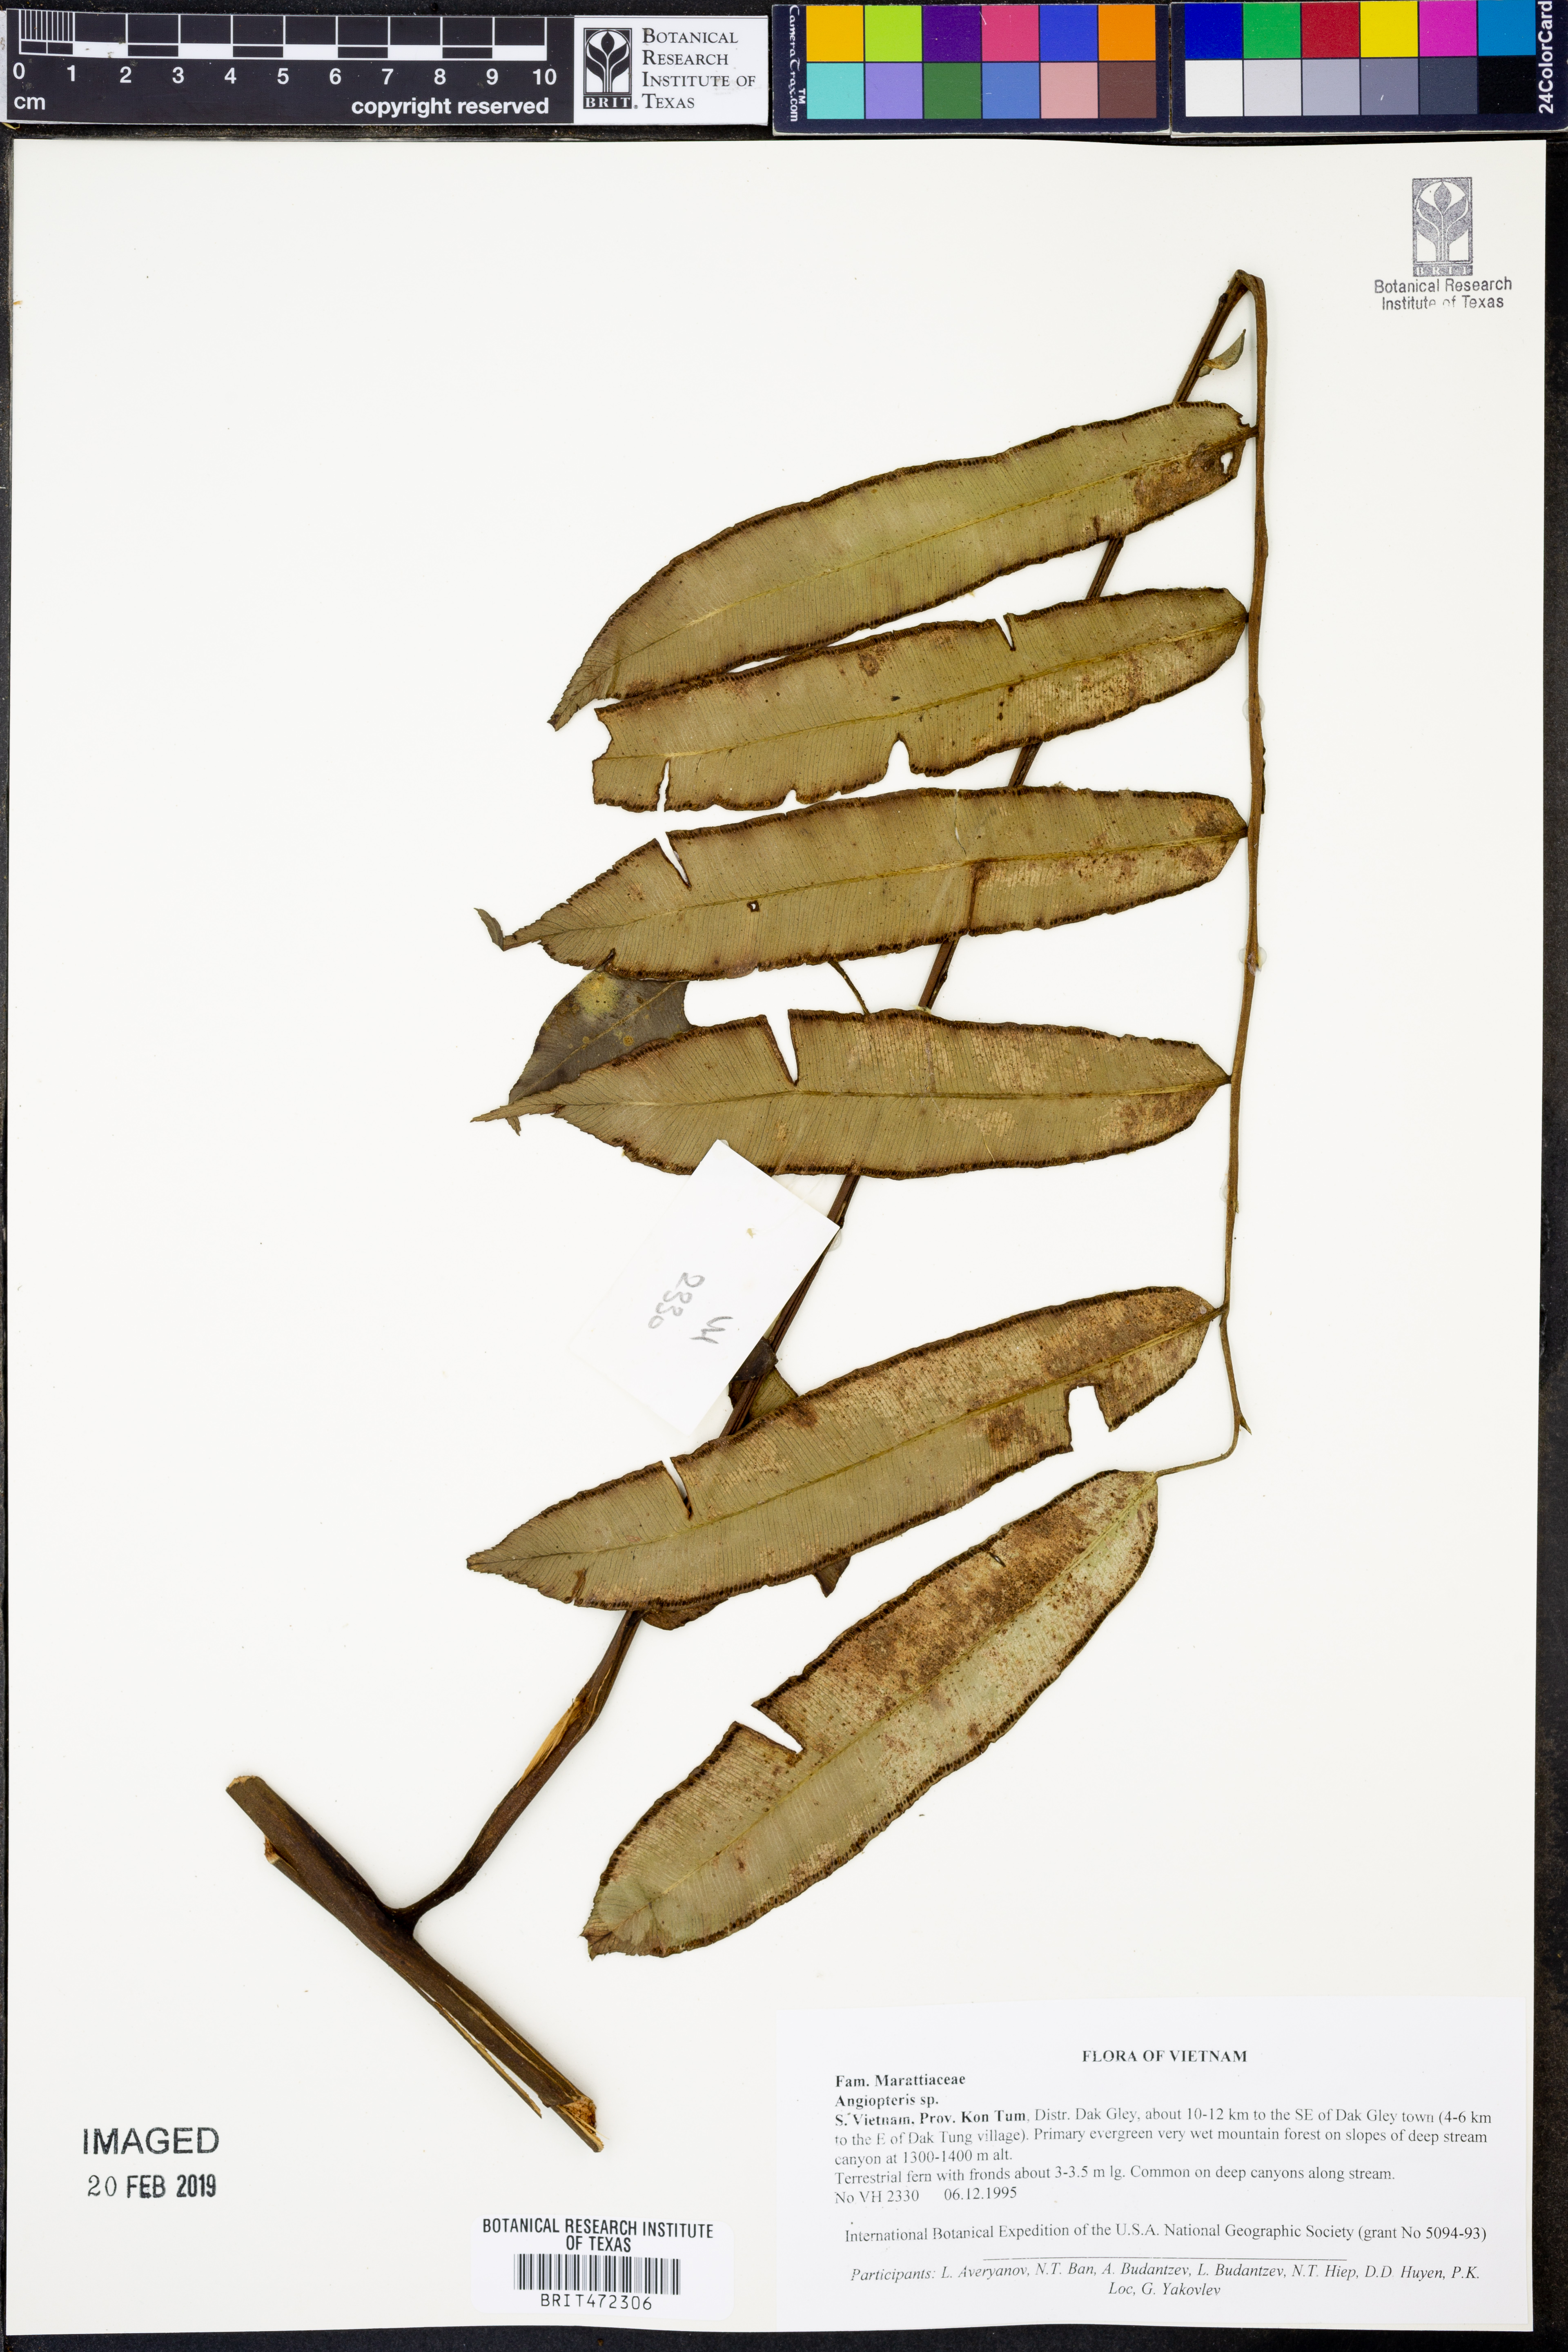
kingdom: Plantae
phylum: Tracheophyta
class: Polypodiopsida
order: Marattiales
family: Marattiaceae
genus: Angiopteris
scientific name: Angiopteris
